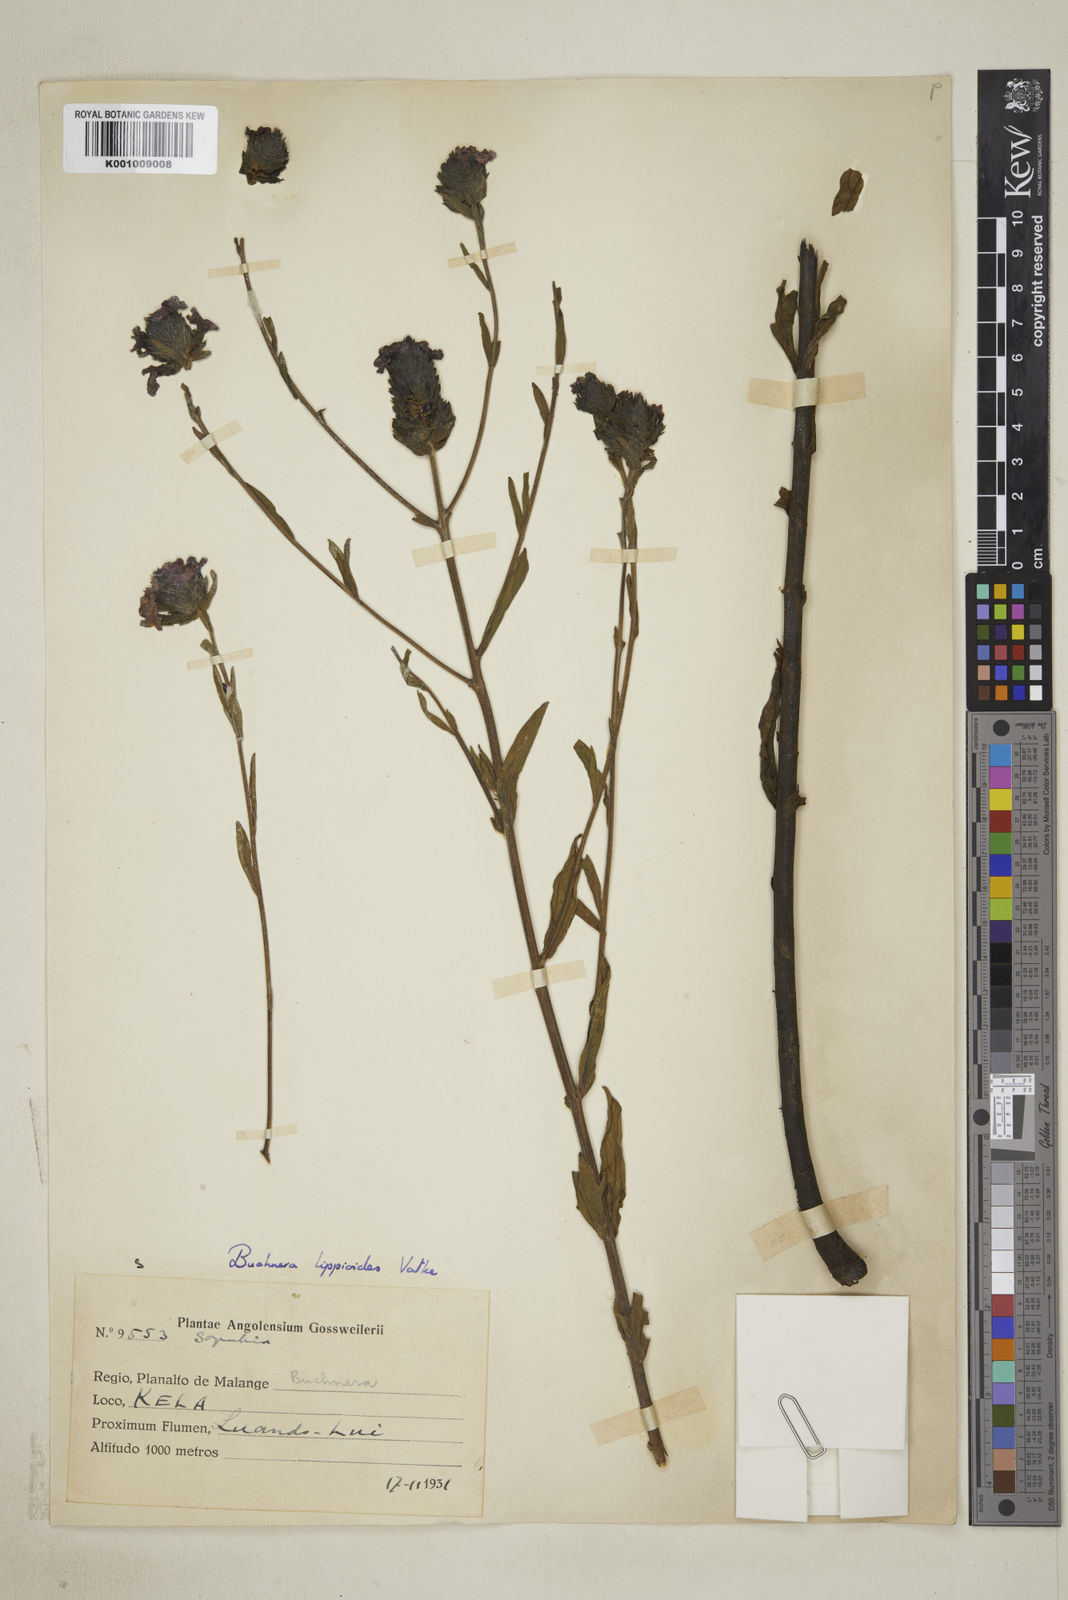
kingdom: Plantae
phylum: Tracheophyta
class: Magnoliopsida
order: Lamiales
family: Orobanchaceae
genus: Buchnera
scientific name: Buchnera lippioides
